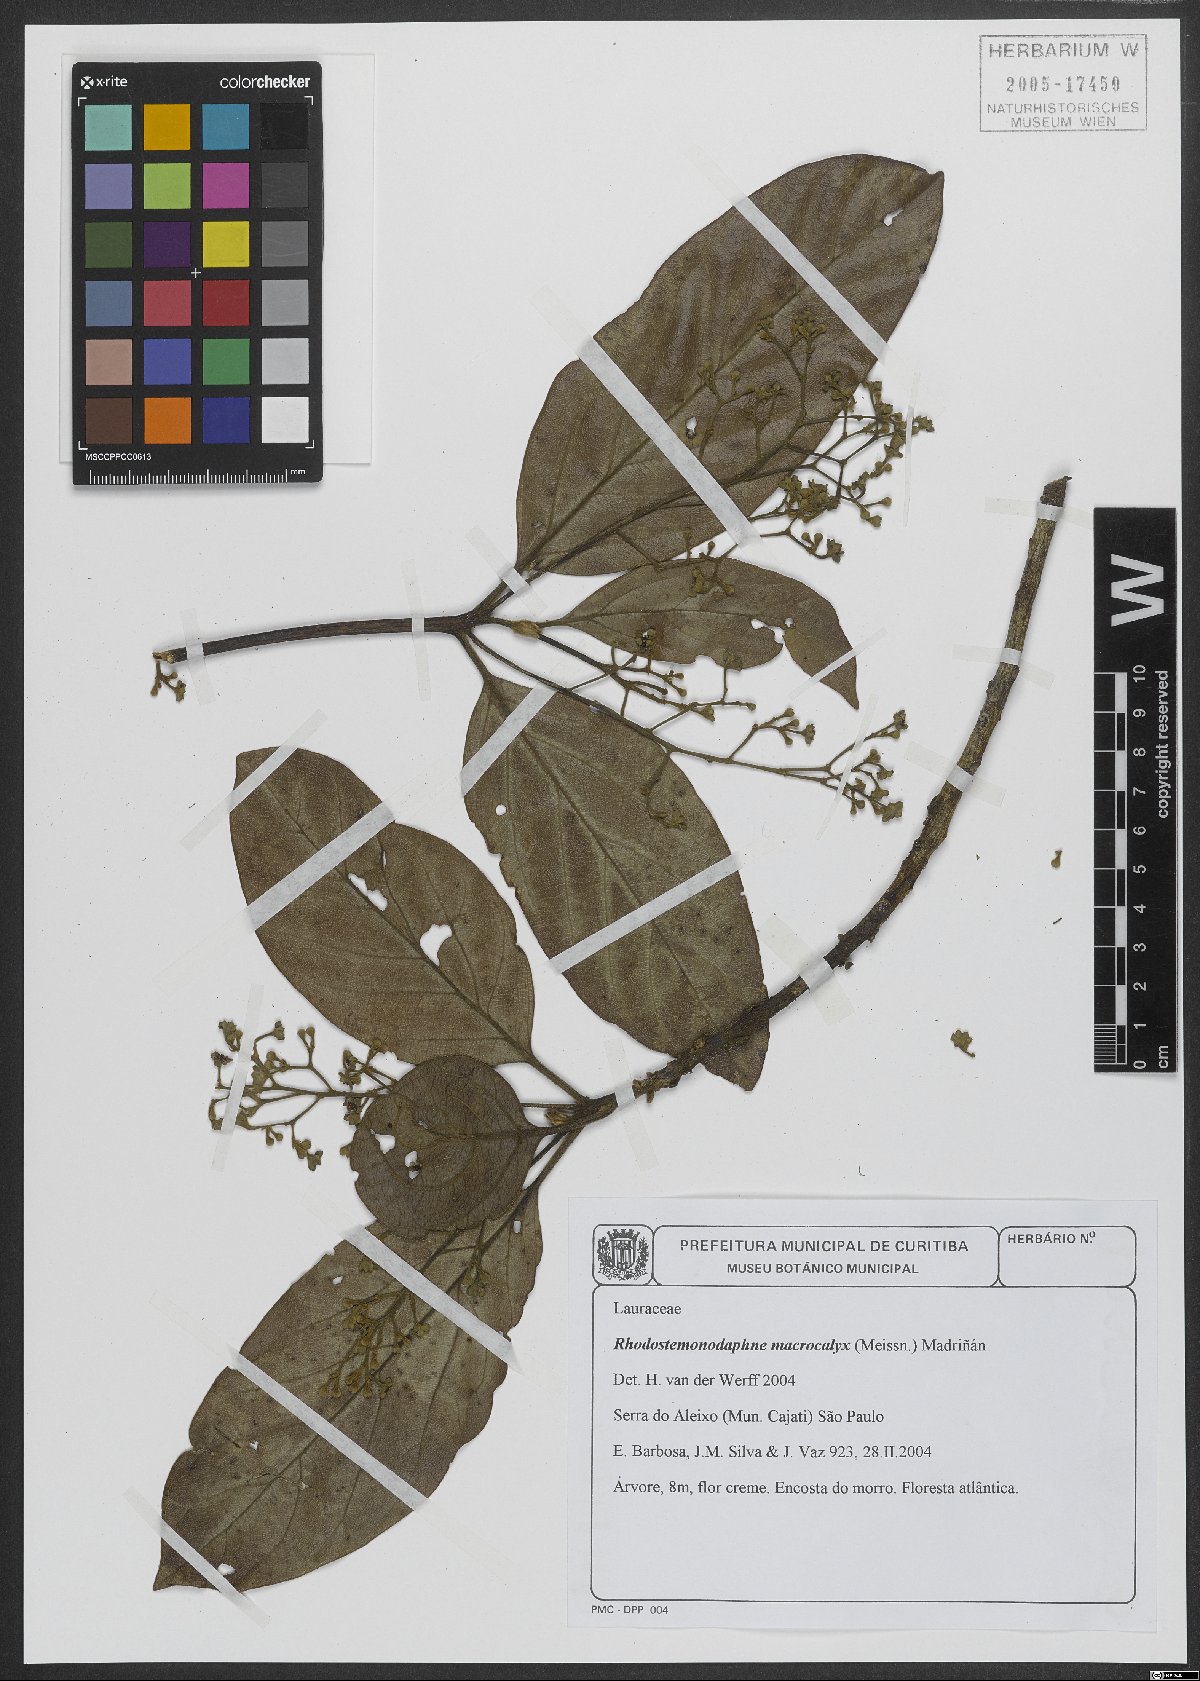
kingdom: Plantae
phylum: Tracheophyta
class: Magnoliopsida
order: Laurales
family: Lauraceae
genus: Rhodostemonodaphne
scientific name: Rhodostemonodaphne macrocalyx
